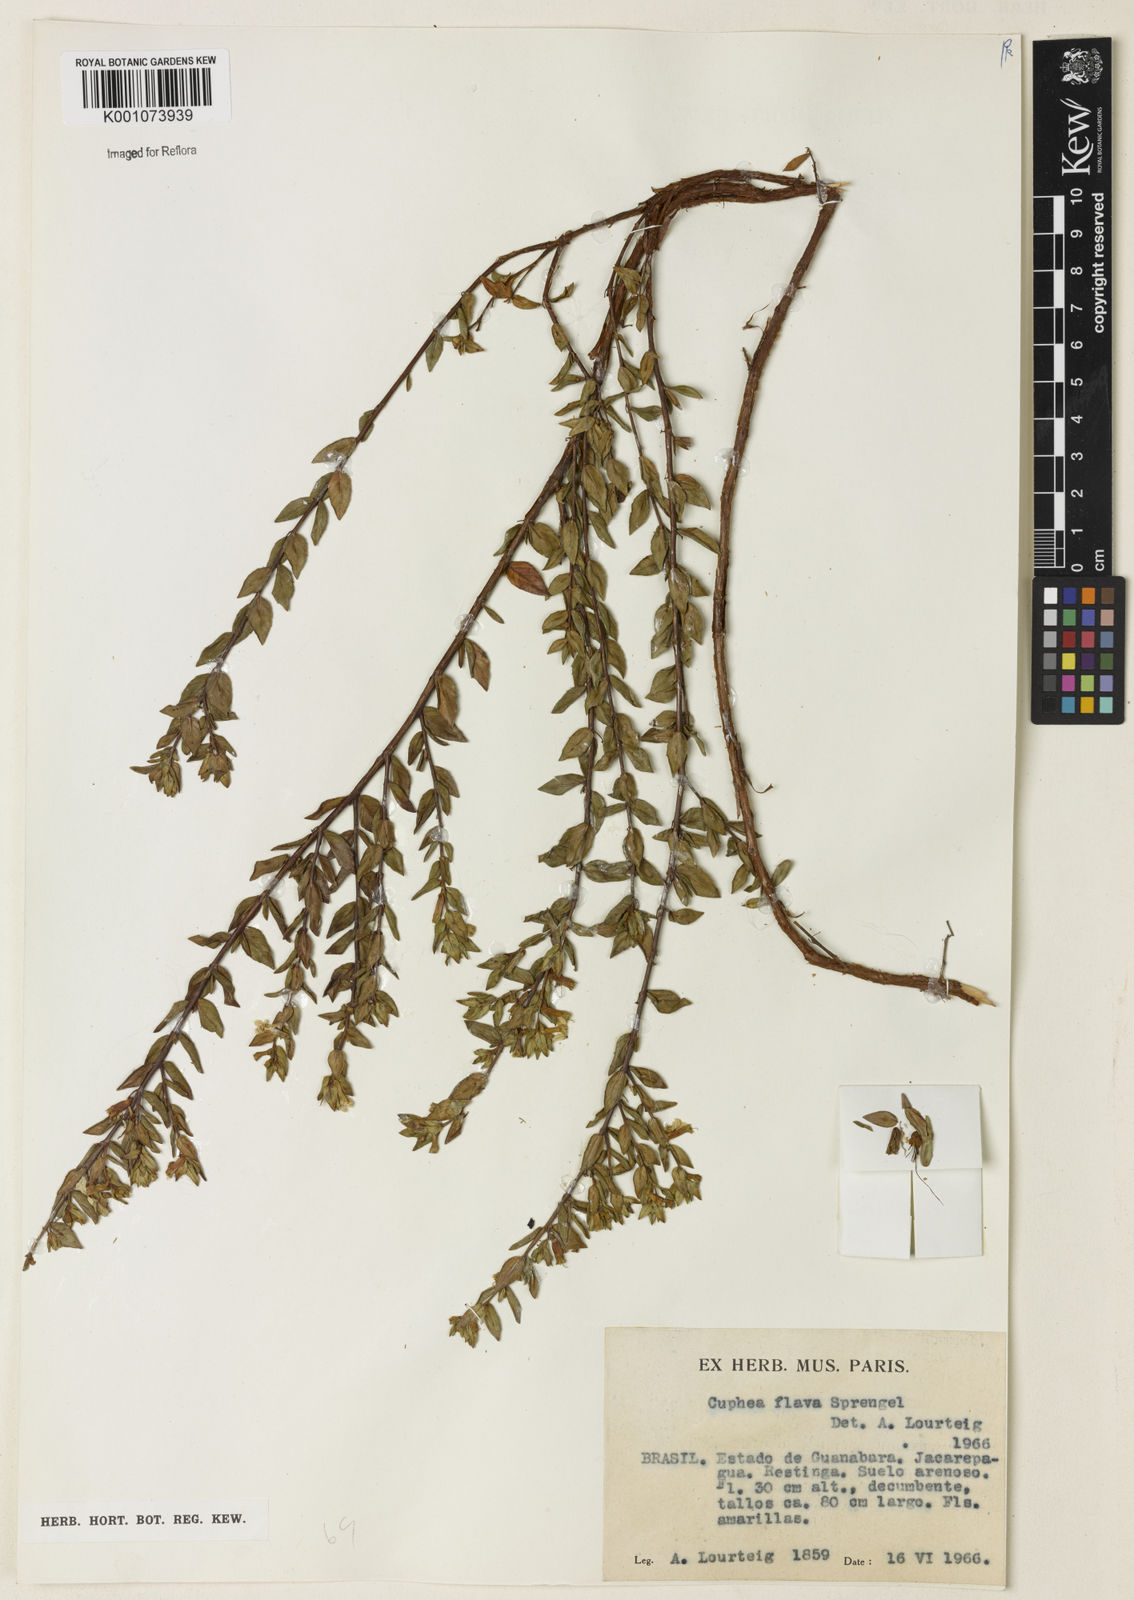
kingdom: Plantae
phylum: Tracheophyta
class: Magnoliopsida
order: Myrtales
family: Lythraceae
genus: Cuphea
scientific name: Cuphea flava
